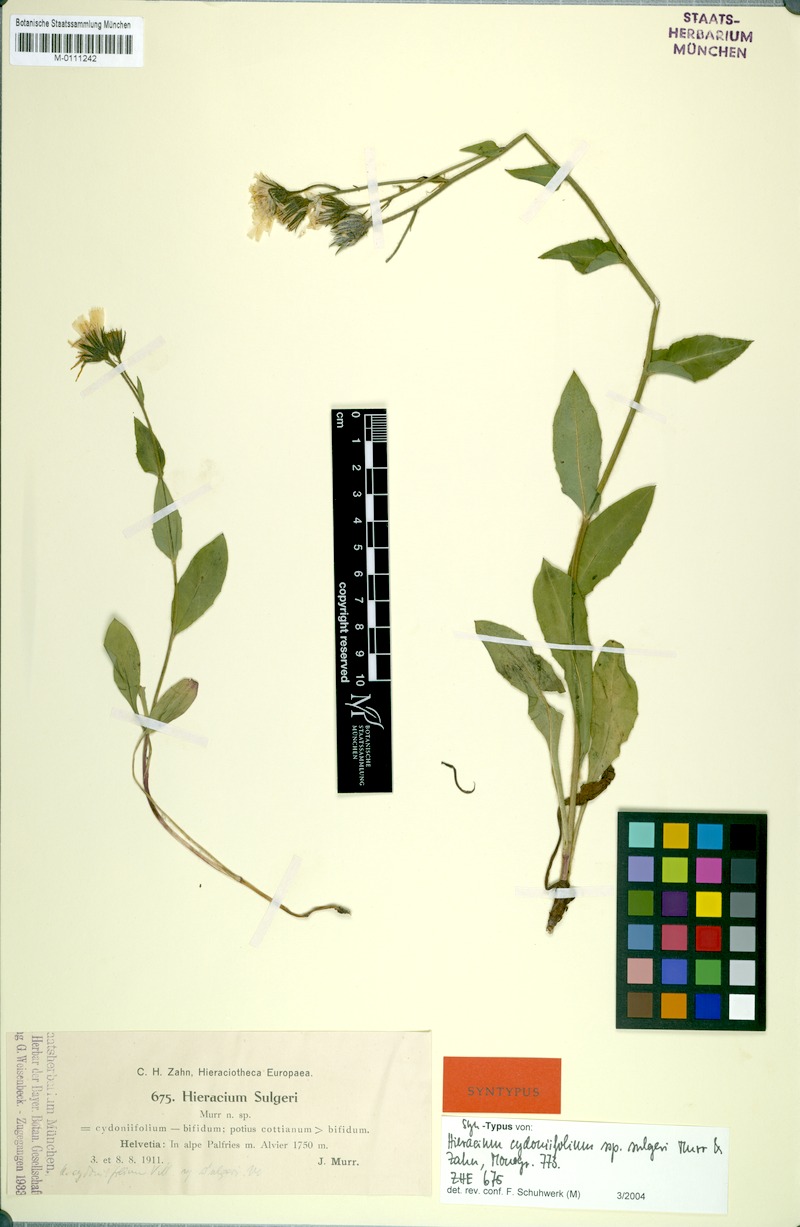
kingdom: Plantae
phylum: Tracheophyta
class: Magnoliopsida
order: Asterales
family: Asteraceae
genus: Hieracium
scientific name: Hieracium cydoniifolium
